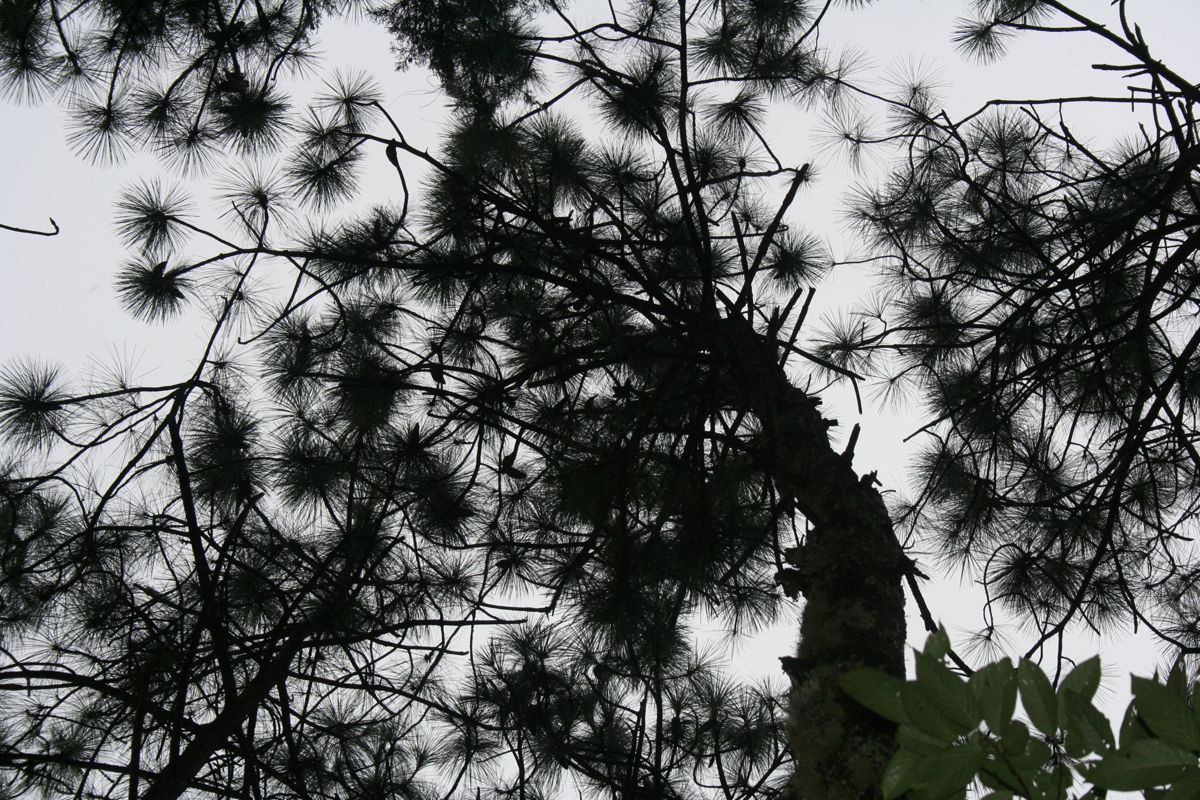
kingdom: Plantae
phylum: Tracheophyta
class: Pinopsida
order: Pinales
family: Pinaceae
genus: Pinus
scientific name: Pinus maximinoi
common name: Thin-leaf pine
